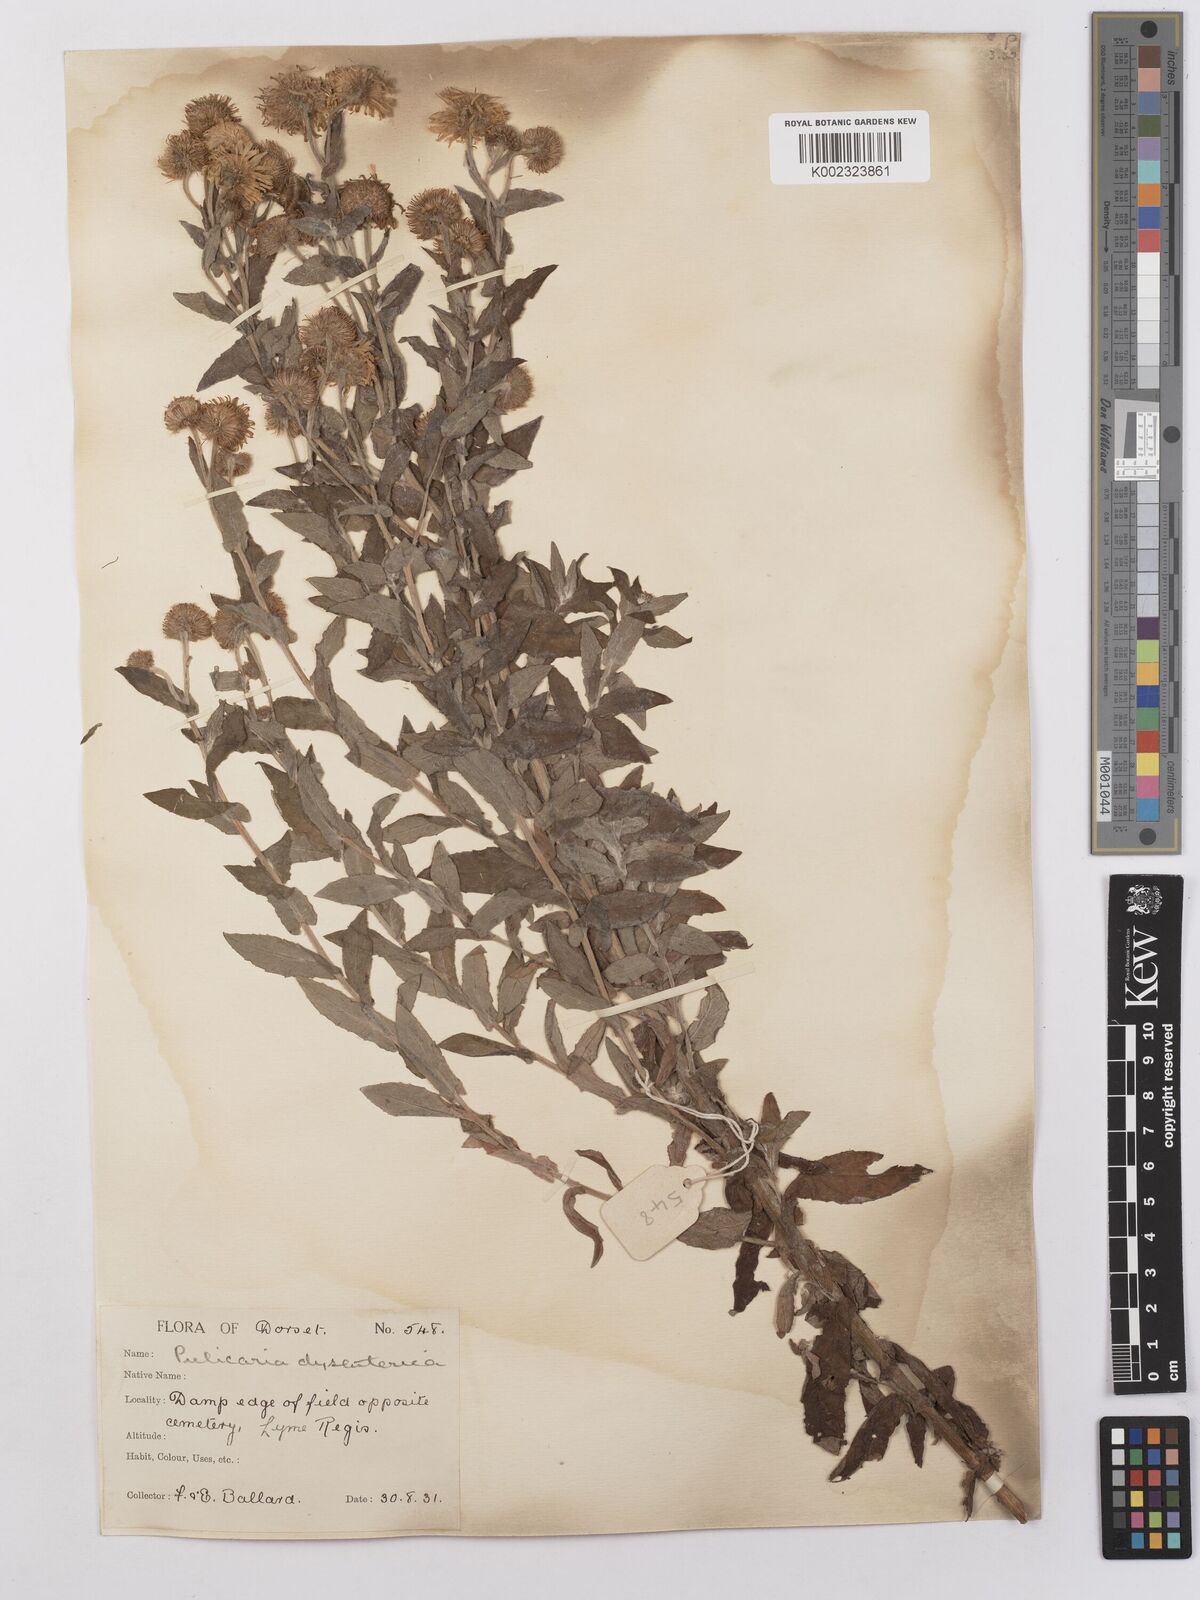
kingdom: Plantae
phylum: Tracheophyta
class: Magnoliopsida
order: Asterales
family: Asteraceae
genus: Pulicaria
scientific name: Pulicaria dysenterica
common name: Common fleabane
